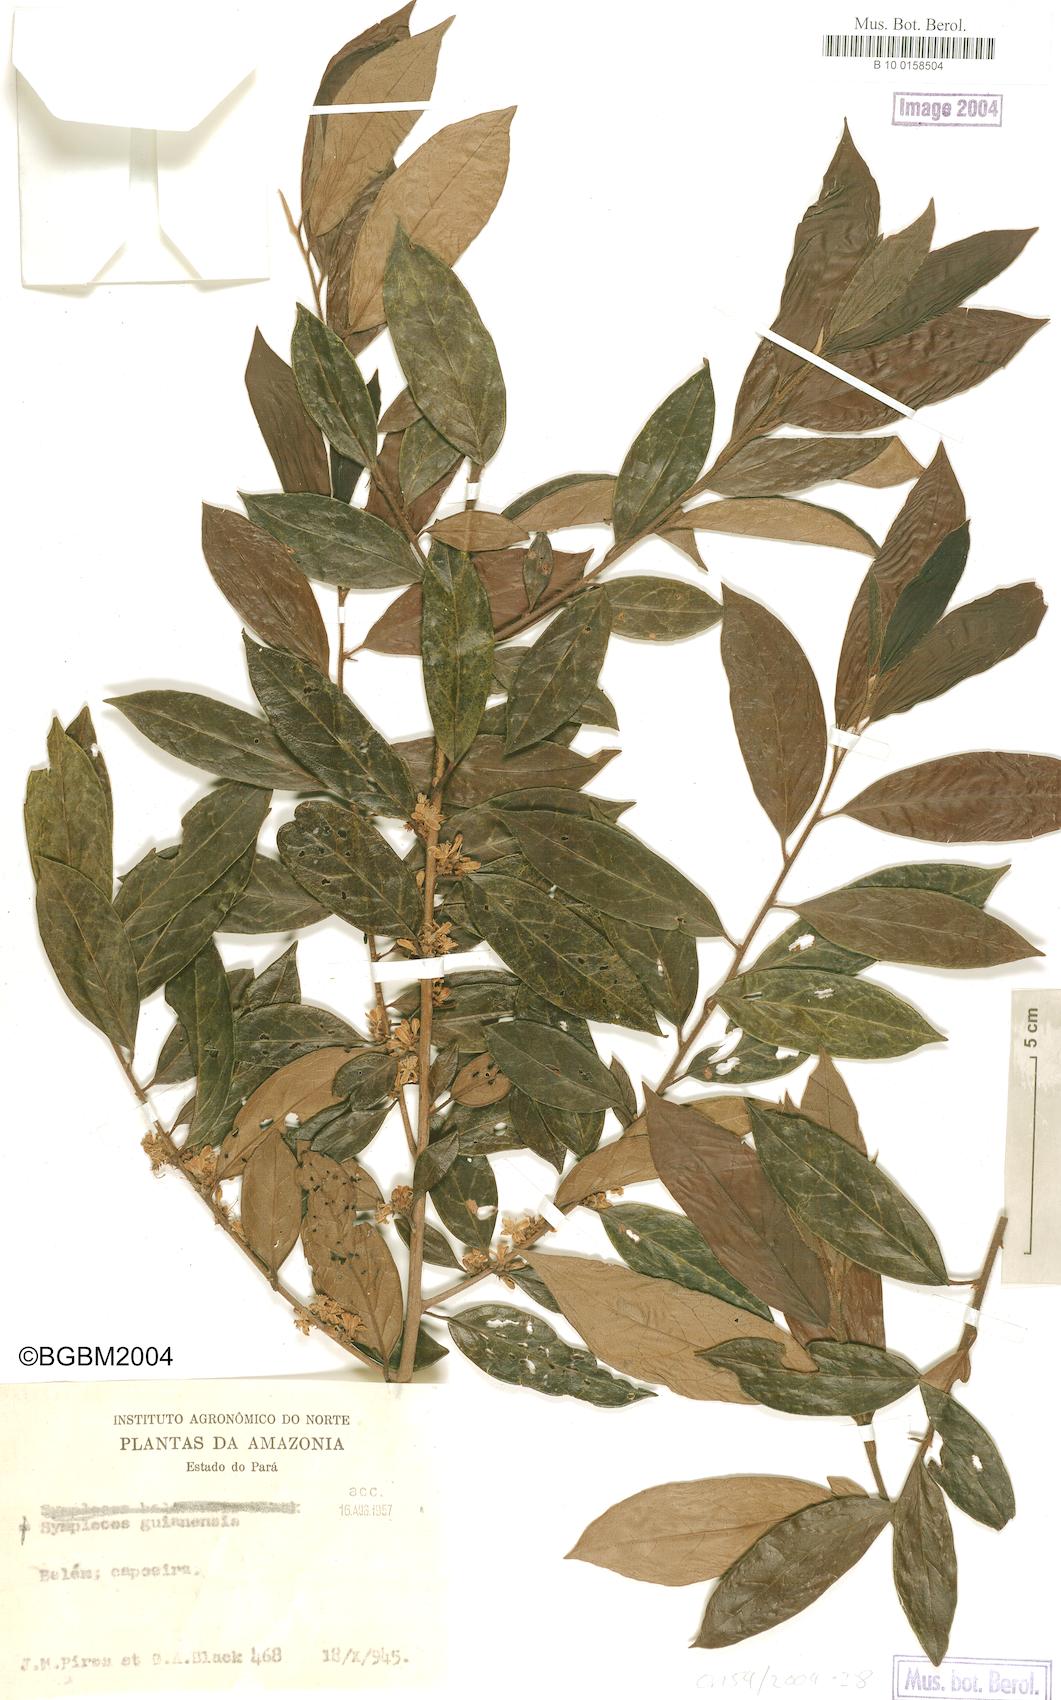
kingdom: Plantae
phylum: Tracheophyta
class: Magnoliopsida
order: Ericales
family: Symplocaceae
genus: Symplocos
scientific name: Symplocos guianensis
